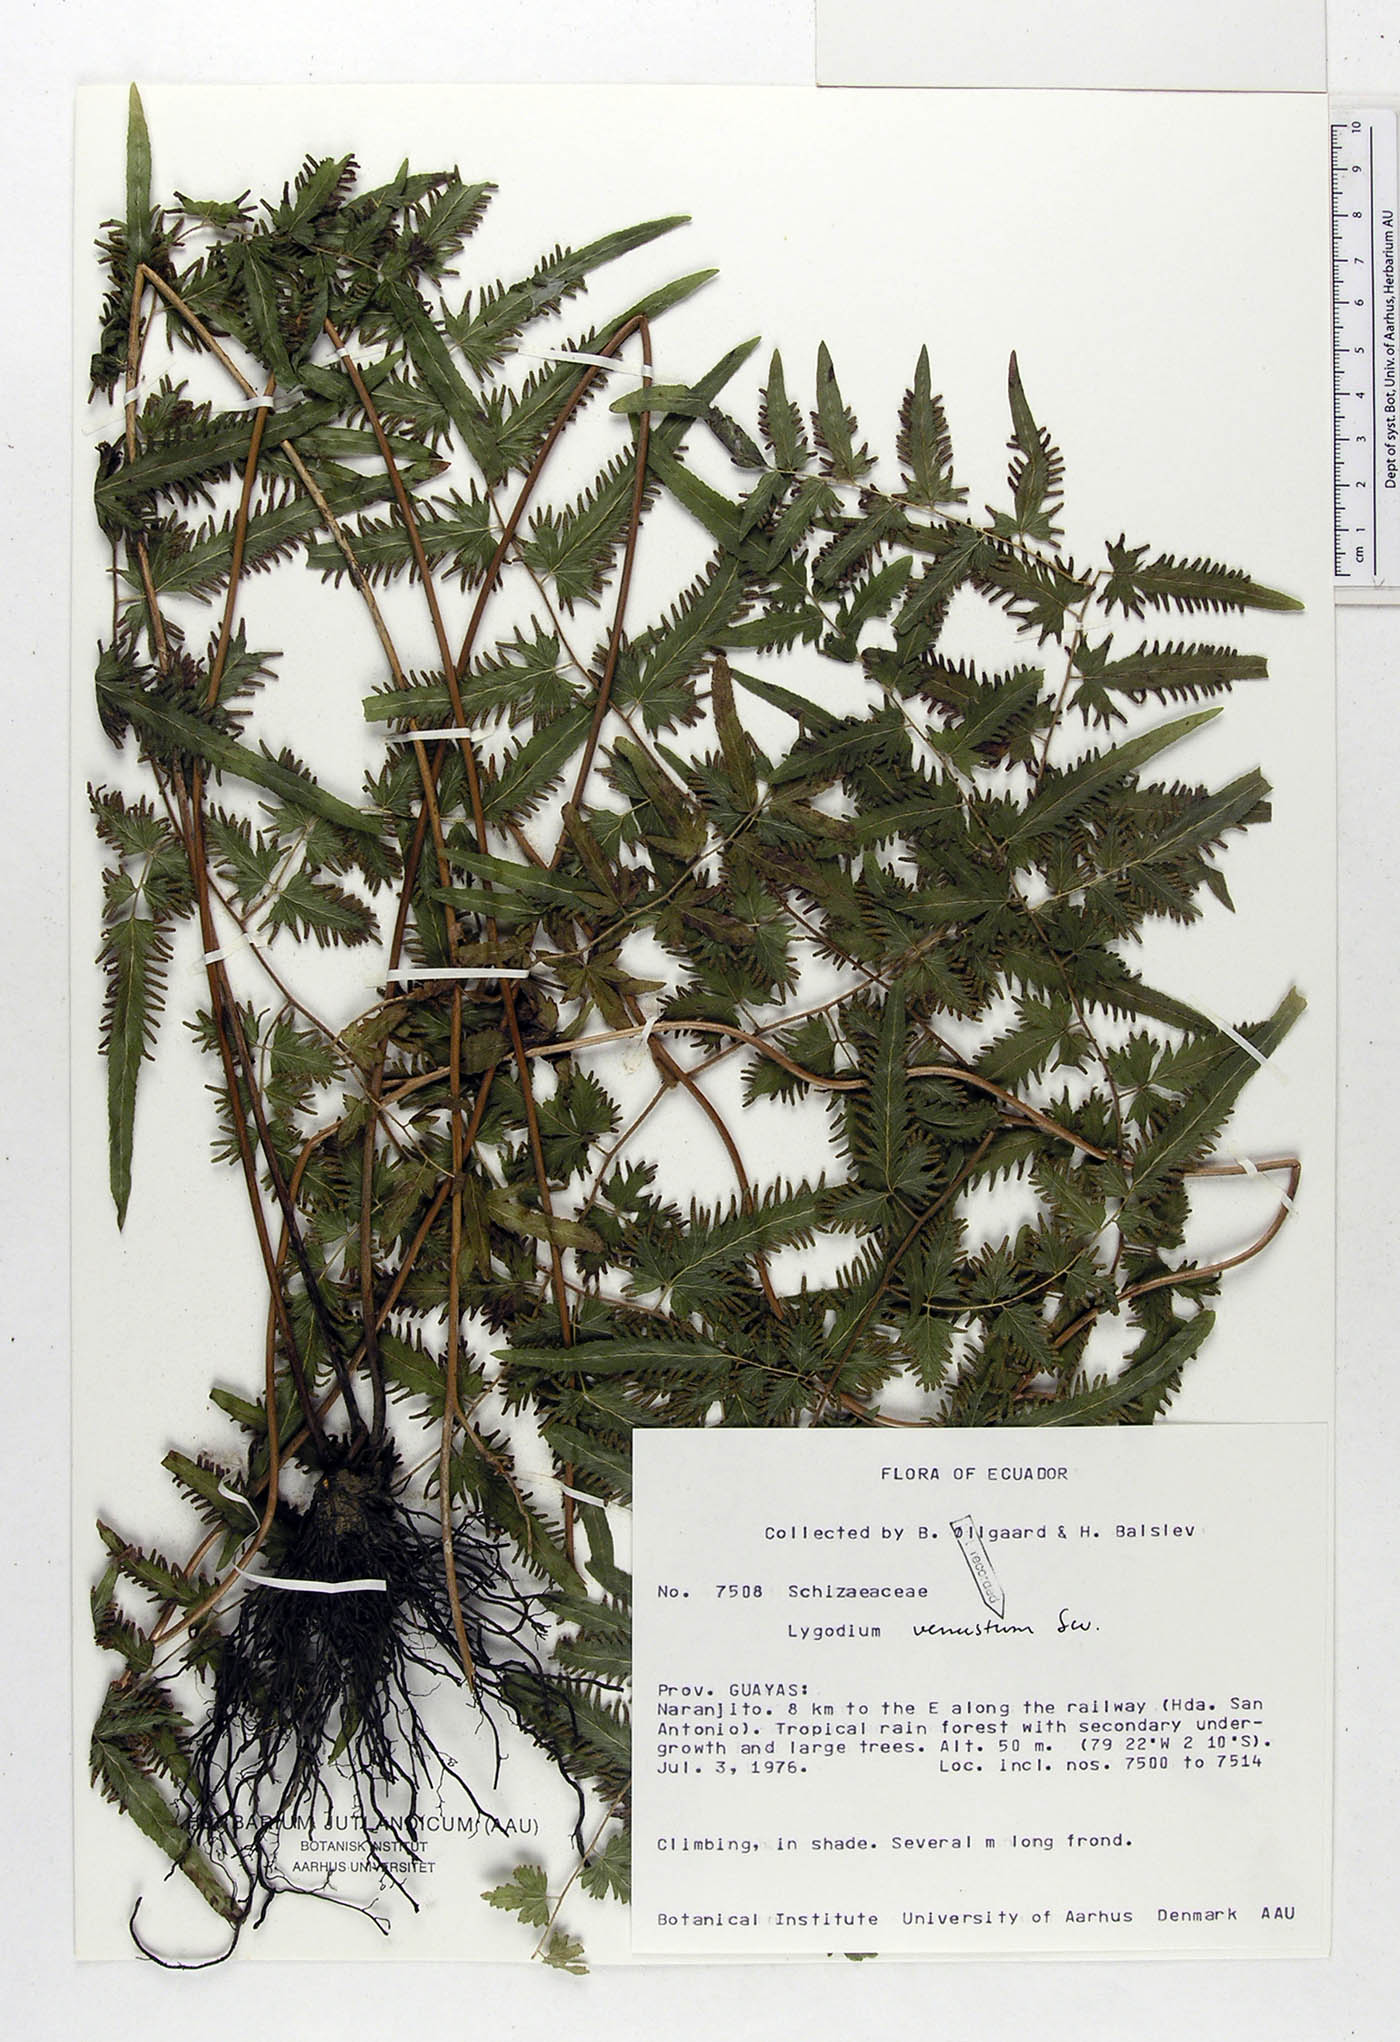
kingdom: Plantae
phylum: Tracheophyta
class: Polypodiopsida
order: Schizaeales
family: Lygodiaceae
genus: Lygodium
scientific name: Lygodium venustum
